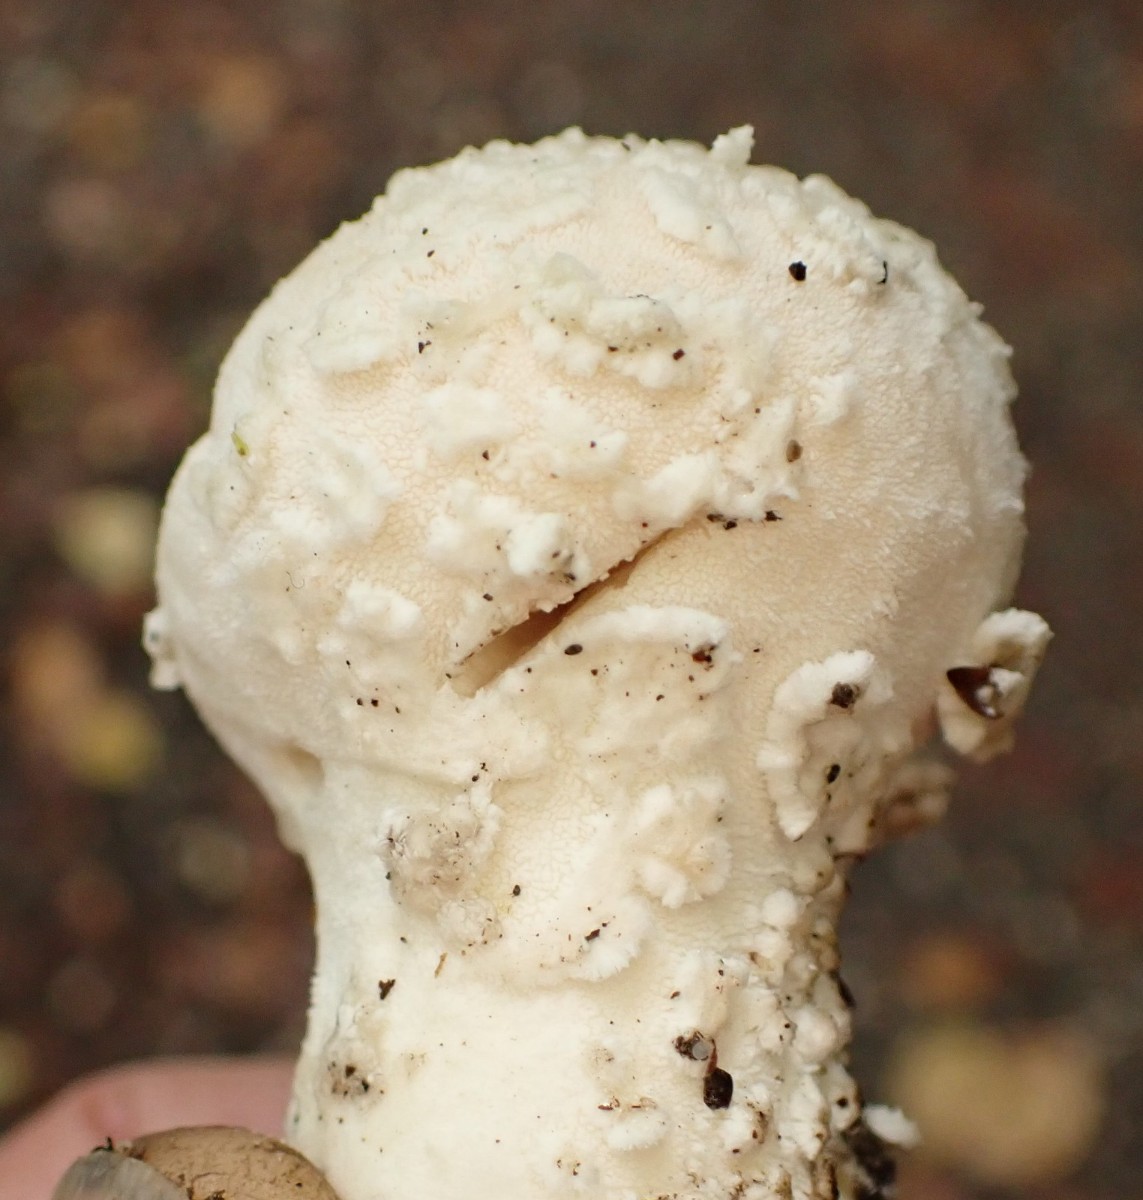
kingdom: Fungi
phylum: Basidiomycota
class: Agaricomycetes
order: Agaricales
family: Lycoperdaceae
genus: Lycoperdon
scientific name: Lycoperdon mammiforme
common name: rosa støvbold
